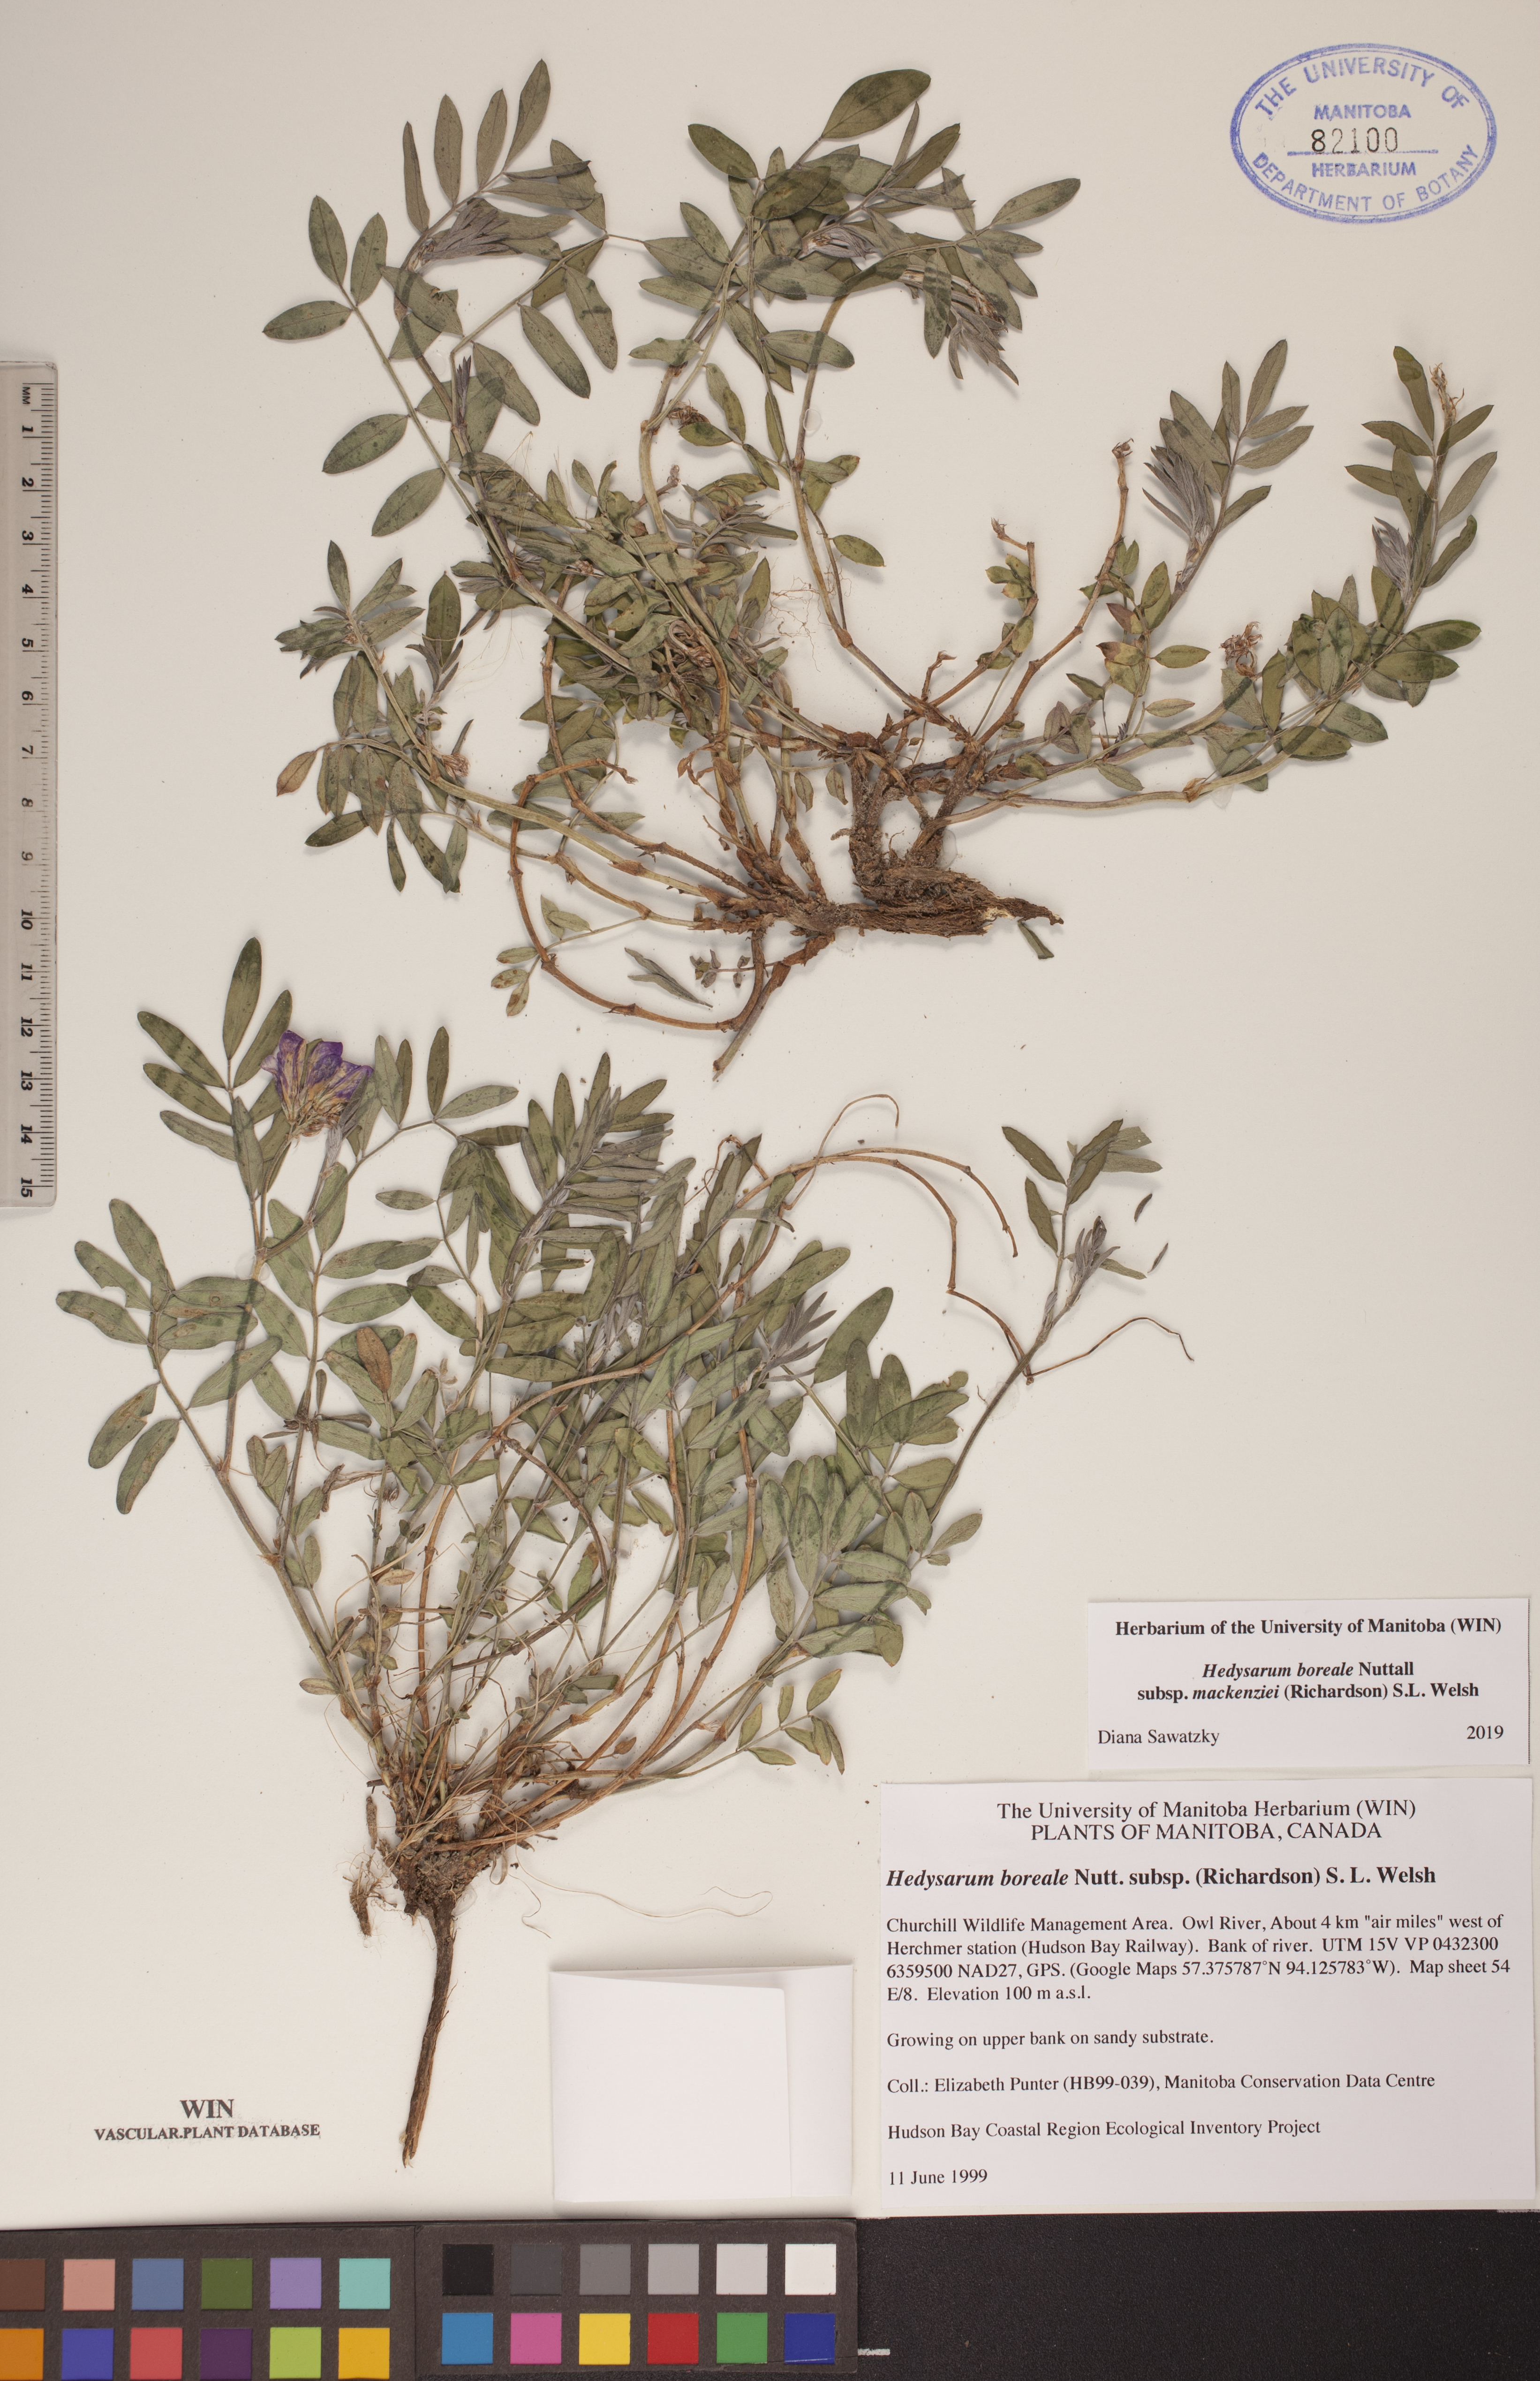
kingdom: Plantae
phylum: Tracheophyta
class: Magnoliopsida
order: Fabales
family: Fabaceae
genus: Hedysarum
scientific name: Hedysarum boreale
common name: Northern sweet-vetch
